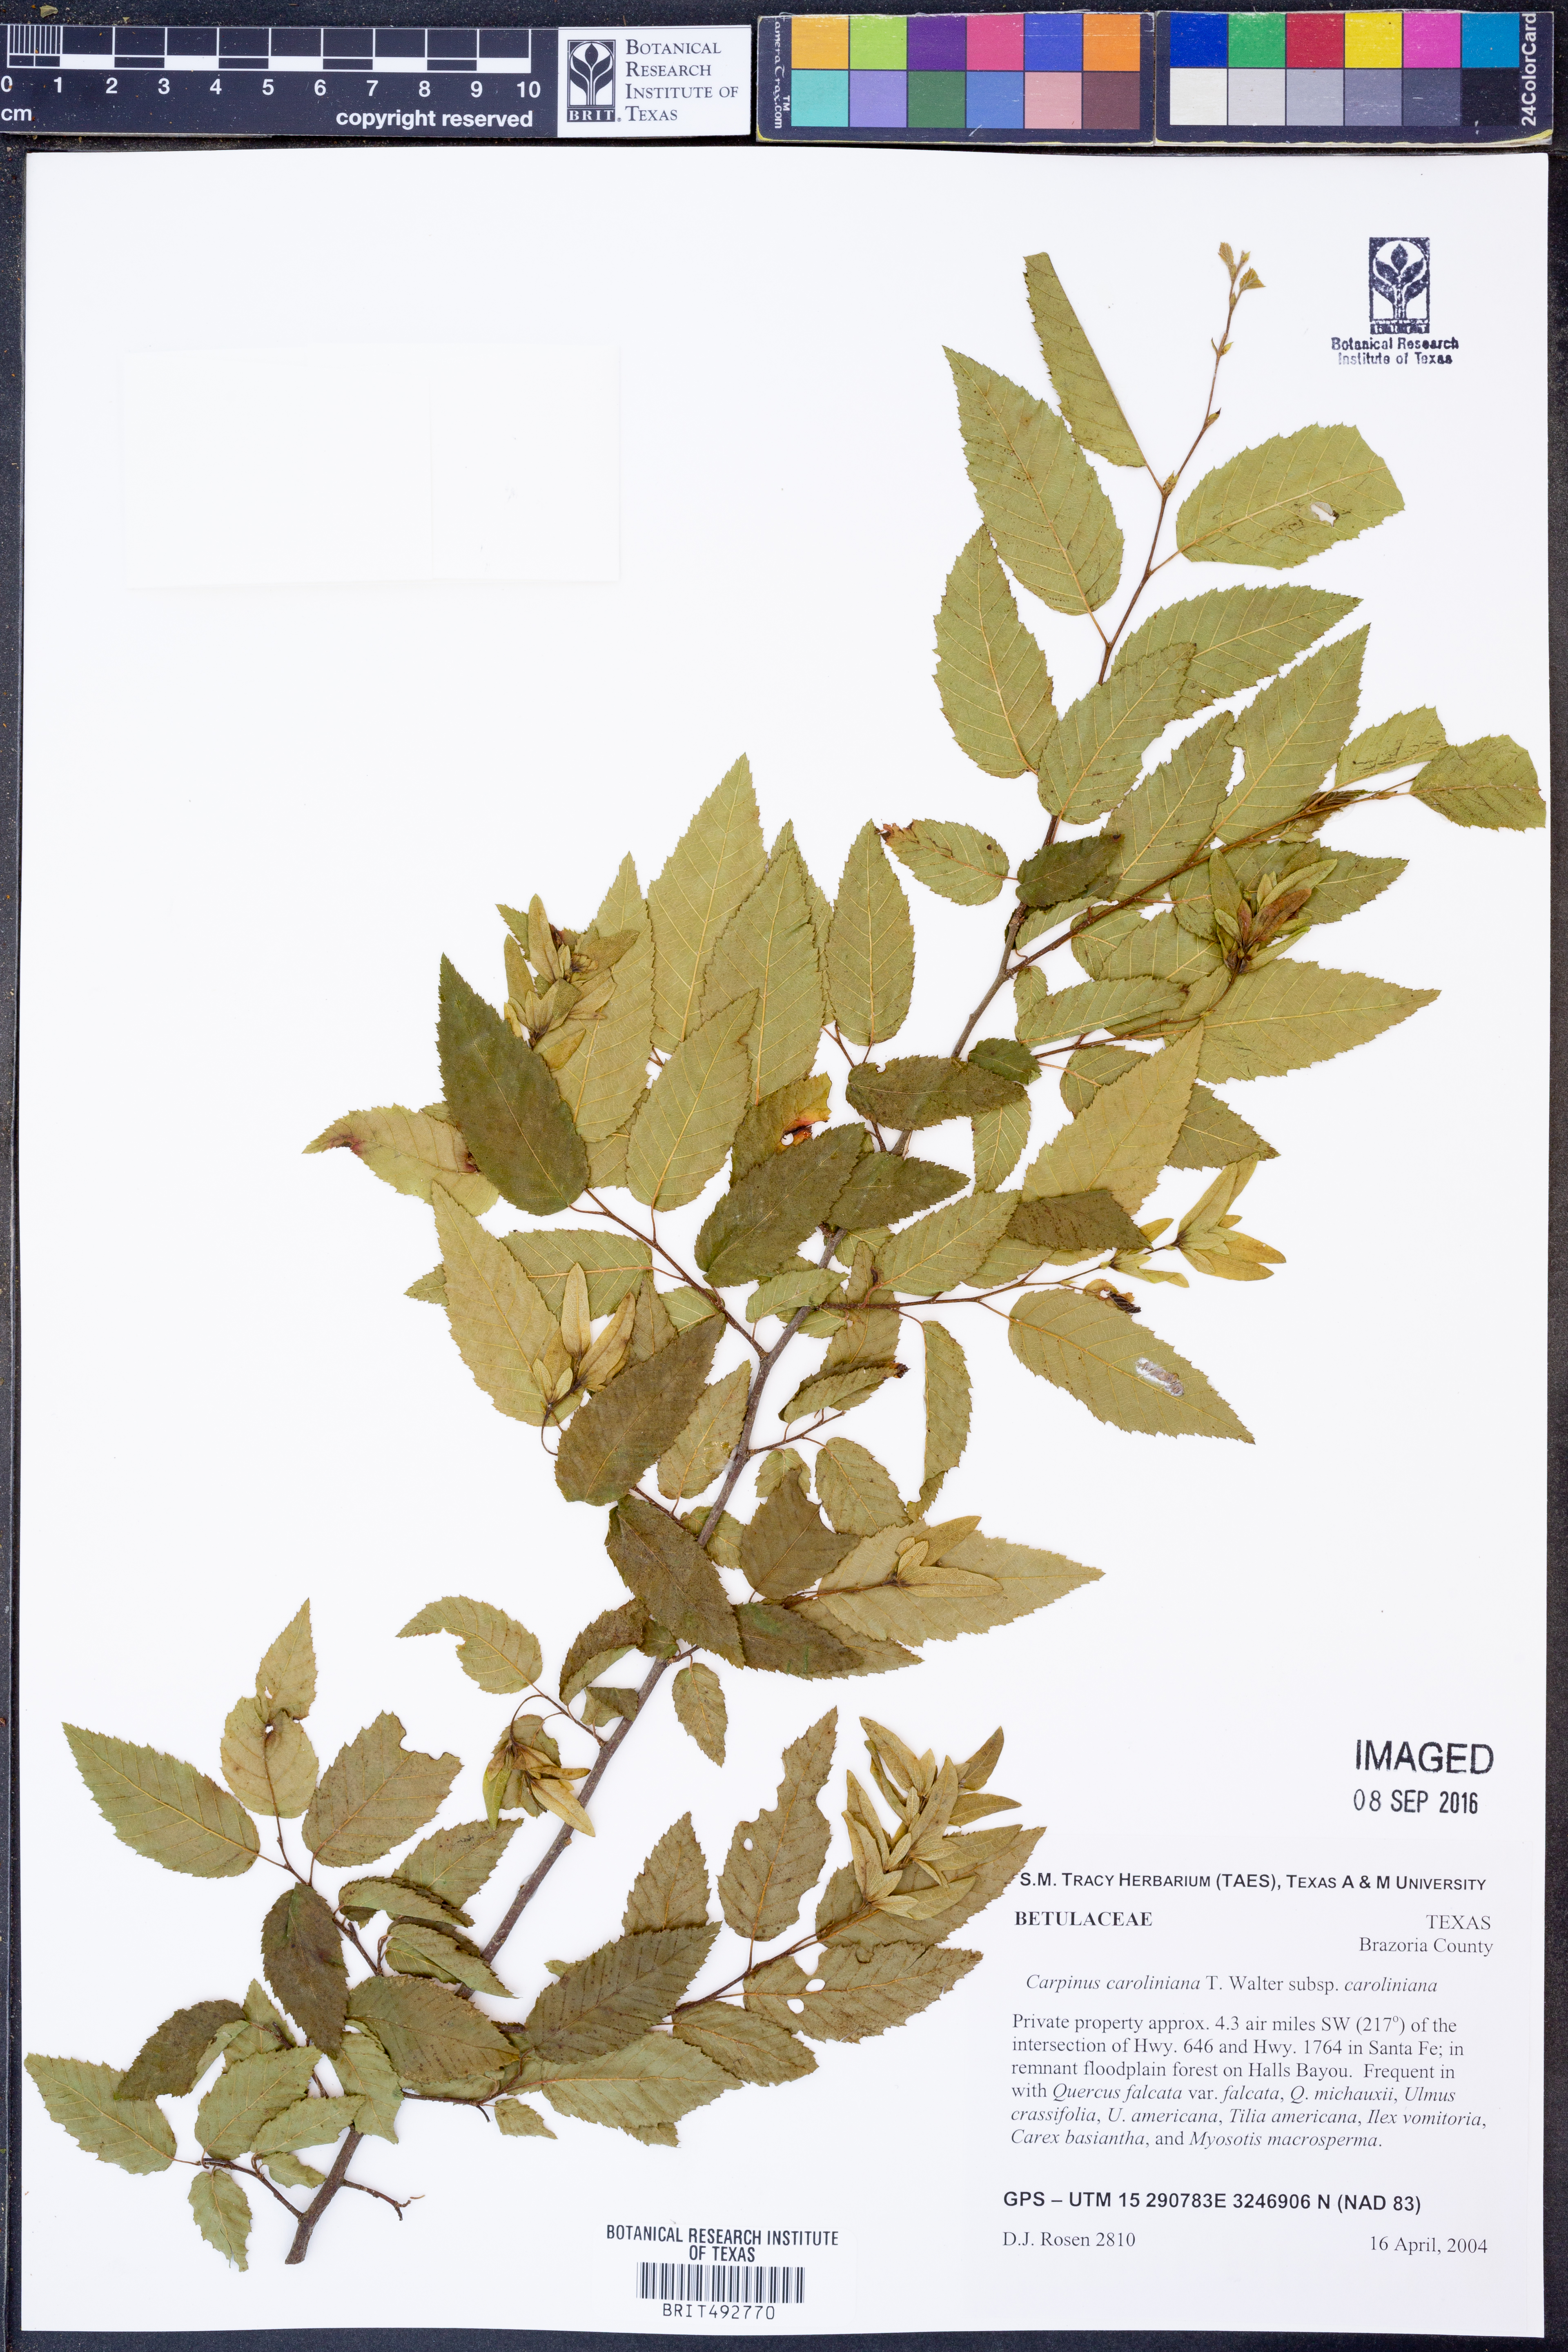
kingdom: Plantae
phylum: Tracheophyta
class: Magnoliopsida
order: Fagales
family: Betulaceae
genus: Carpinus
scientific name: Carpinus caroliniana
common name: American hornbeam
